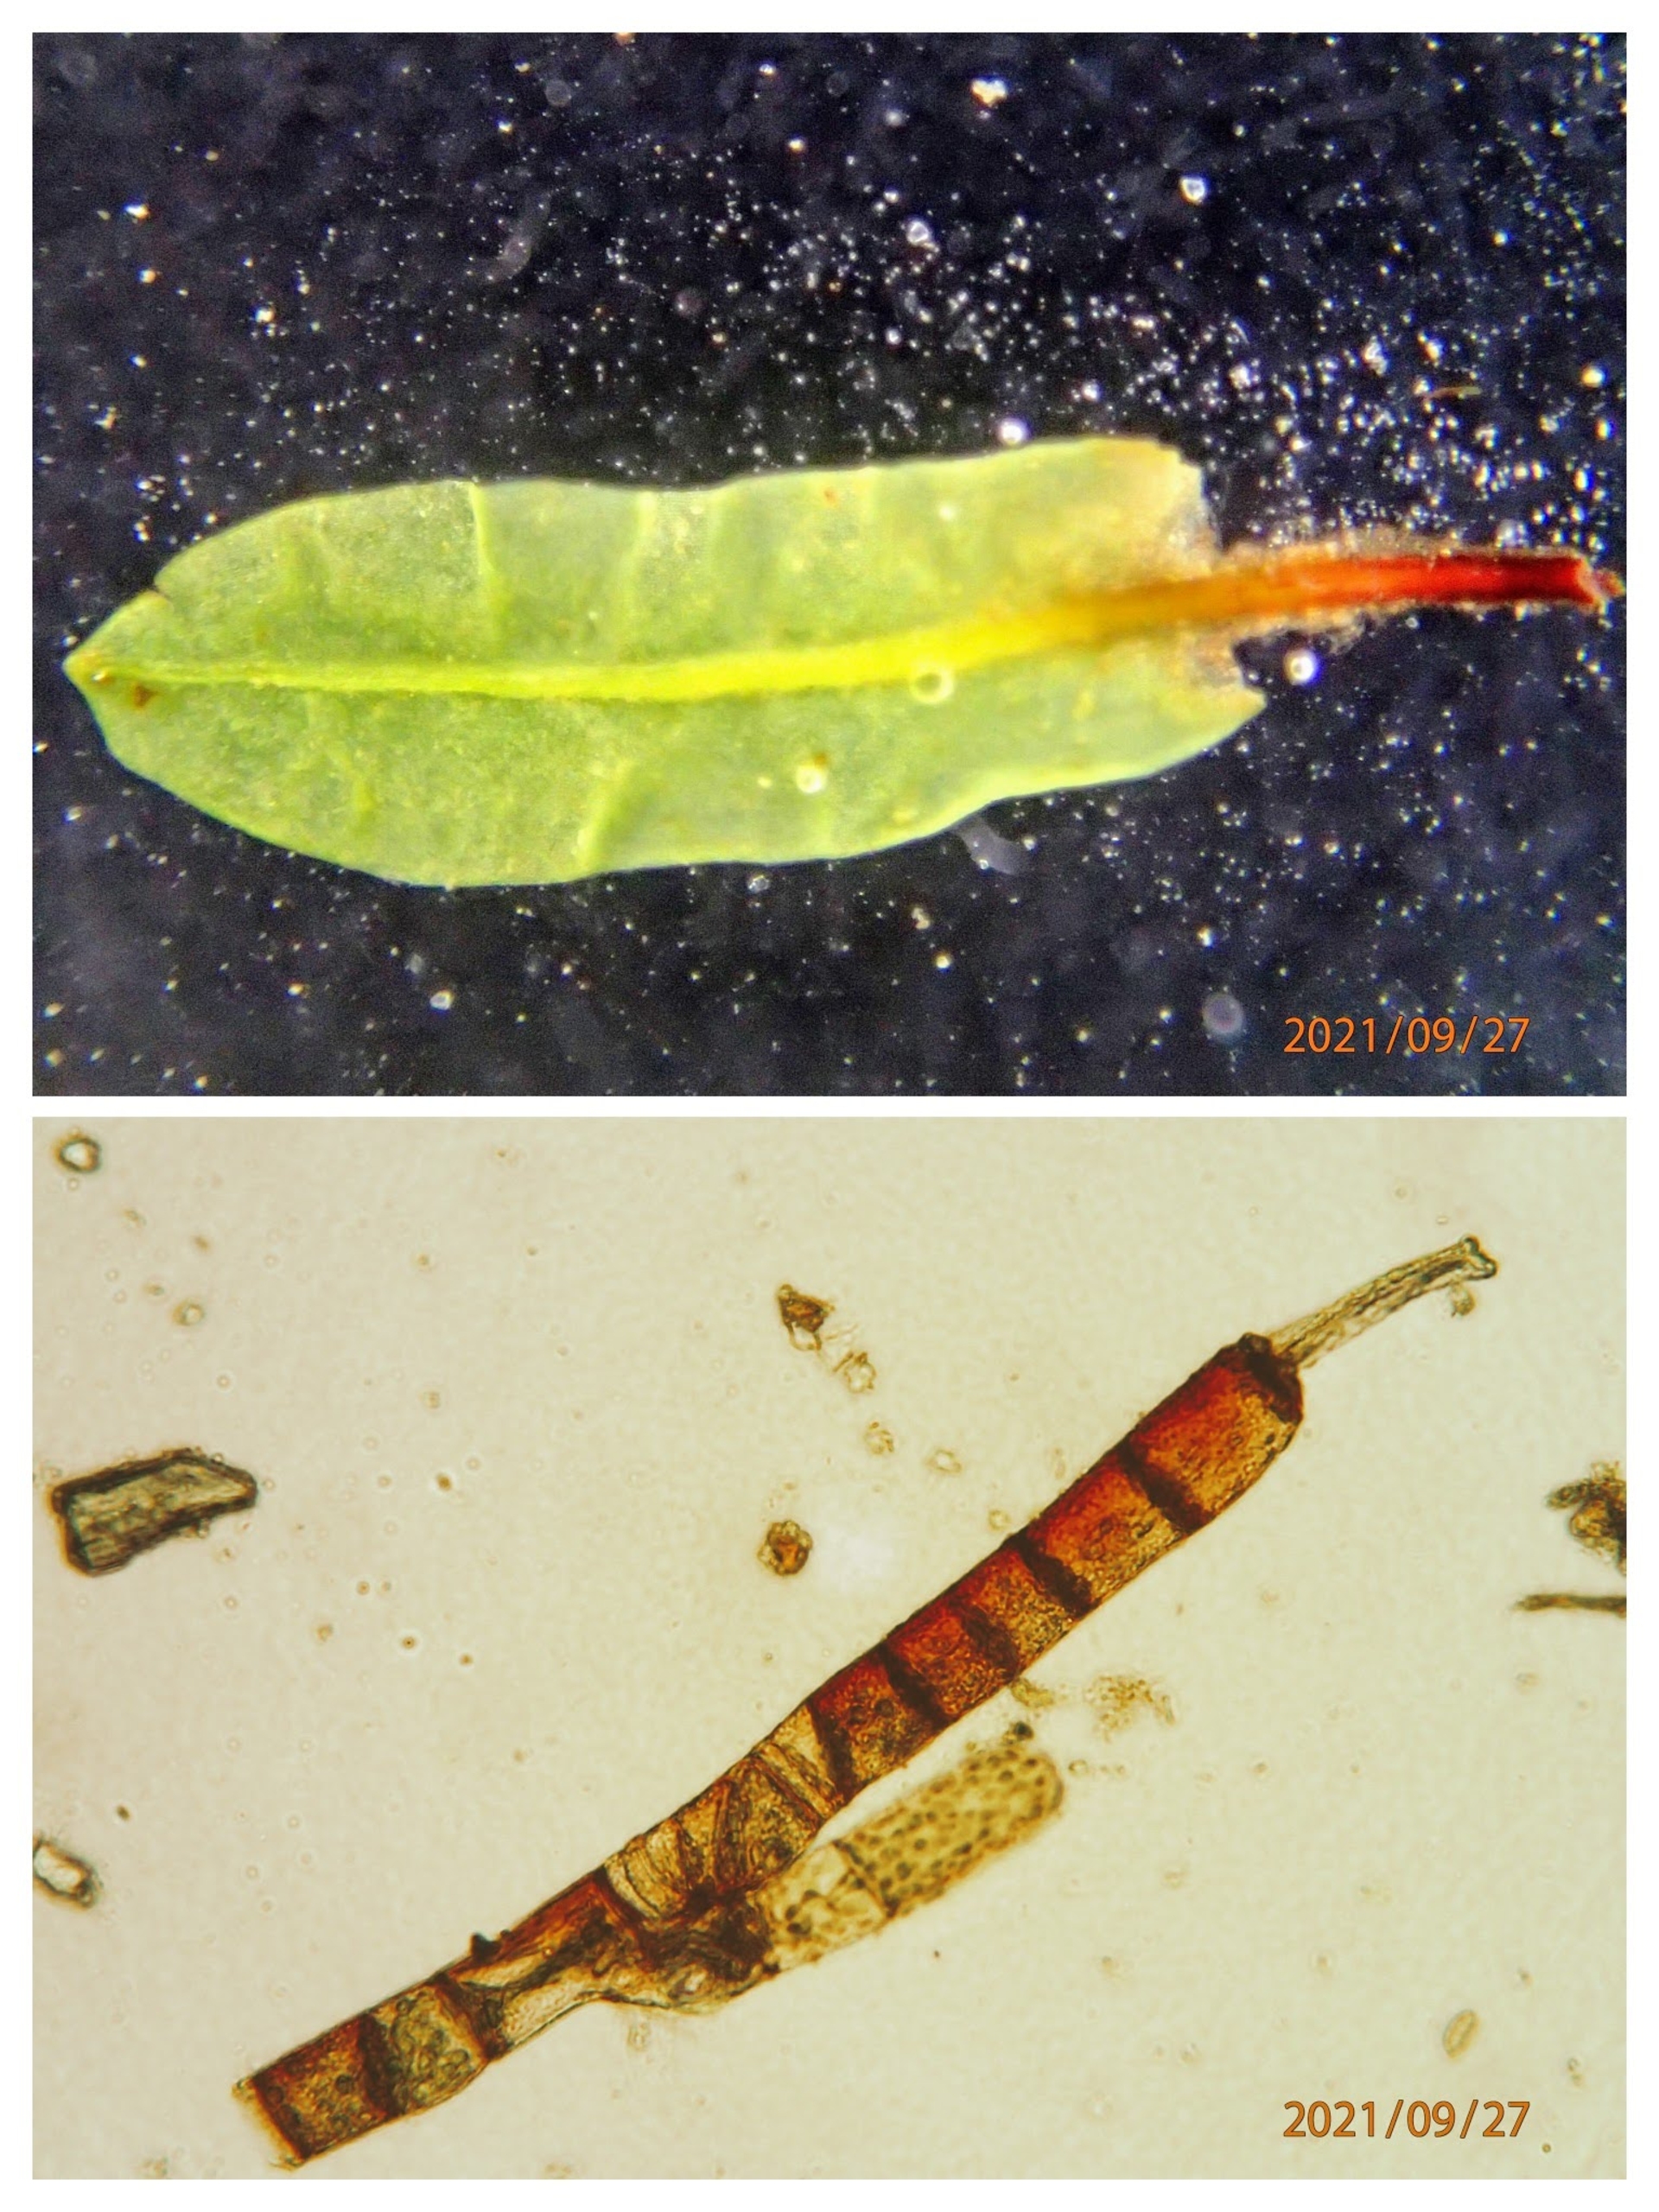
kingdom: Plantae
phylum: Bryophyta
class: Bryopsida
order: Encalyptales
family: Encalyptaceae
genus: Encalypta
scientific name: Encalypta streptocarpa
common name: Stor klokkehætte
